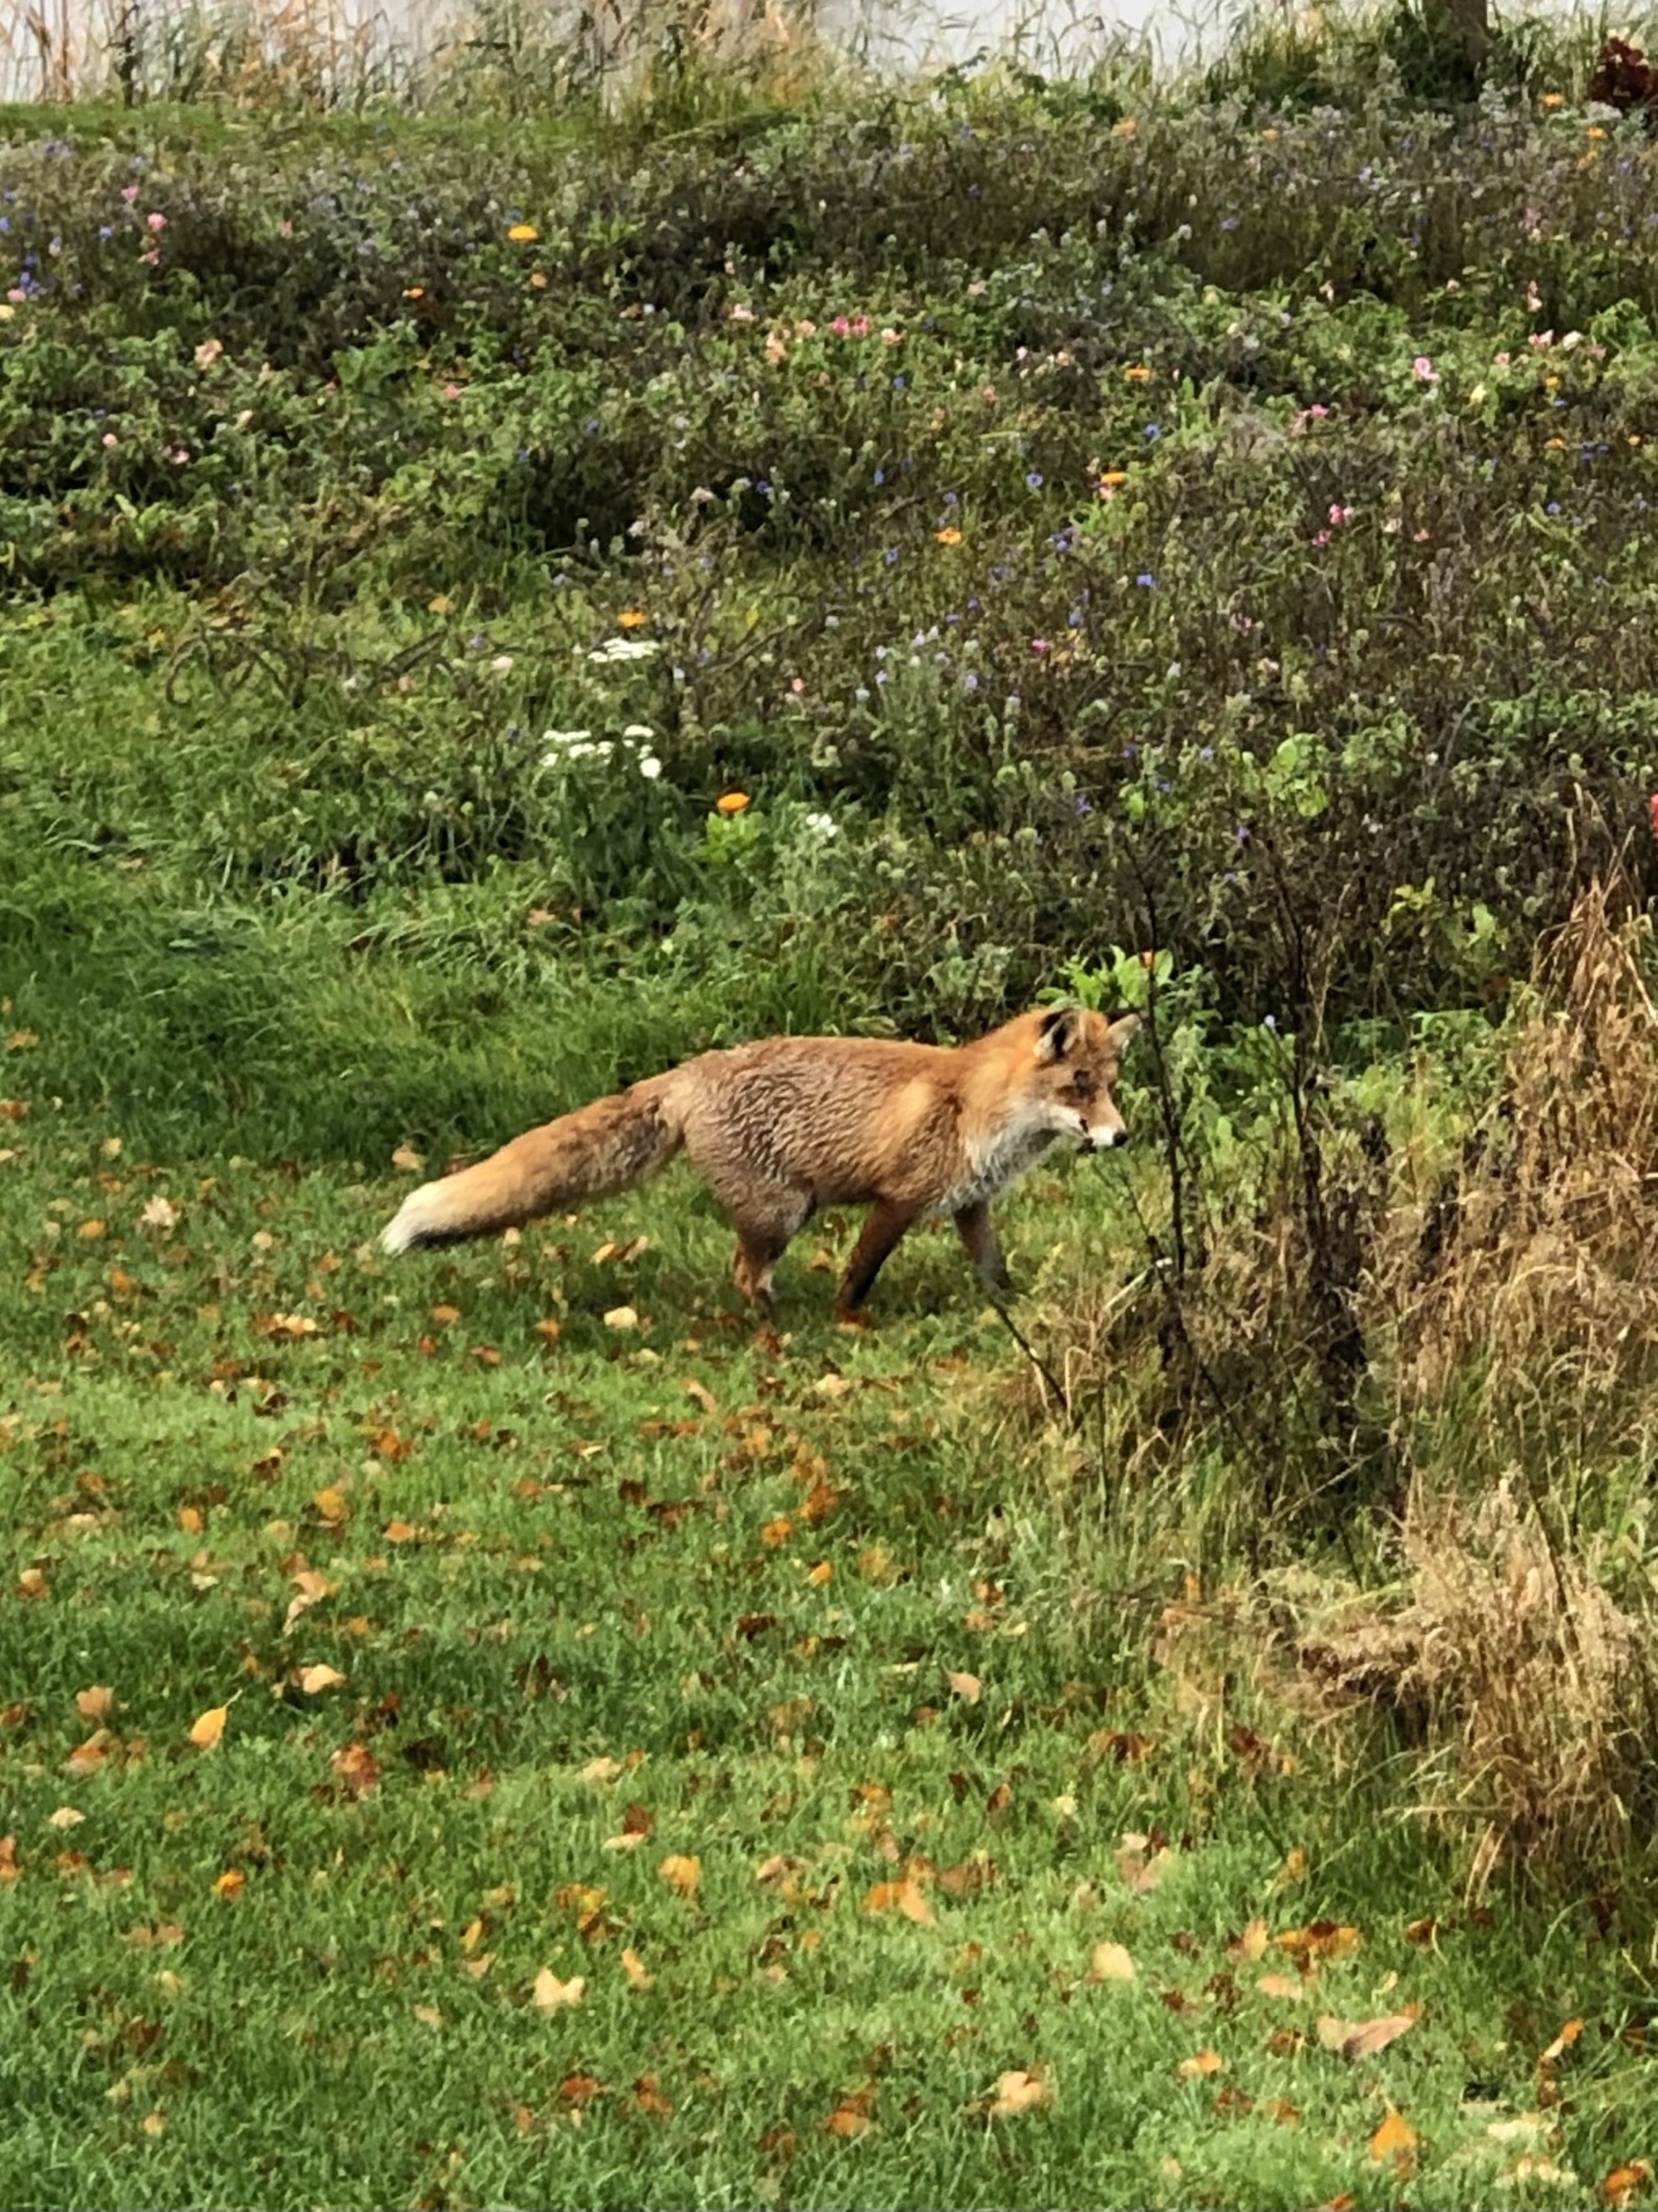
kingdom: Animalia
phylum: Chordata
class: Mammalia
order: Carnivora
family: Canidae
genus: Vulpes
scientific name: Vulpes vulpes
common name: Ræv
